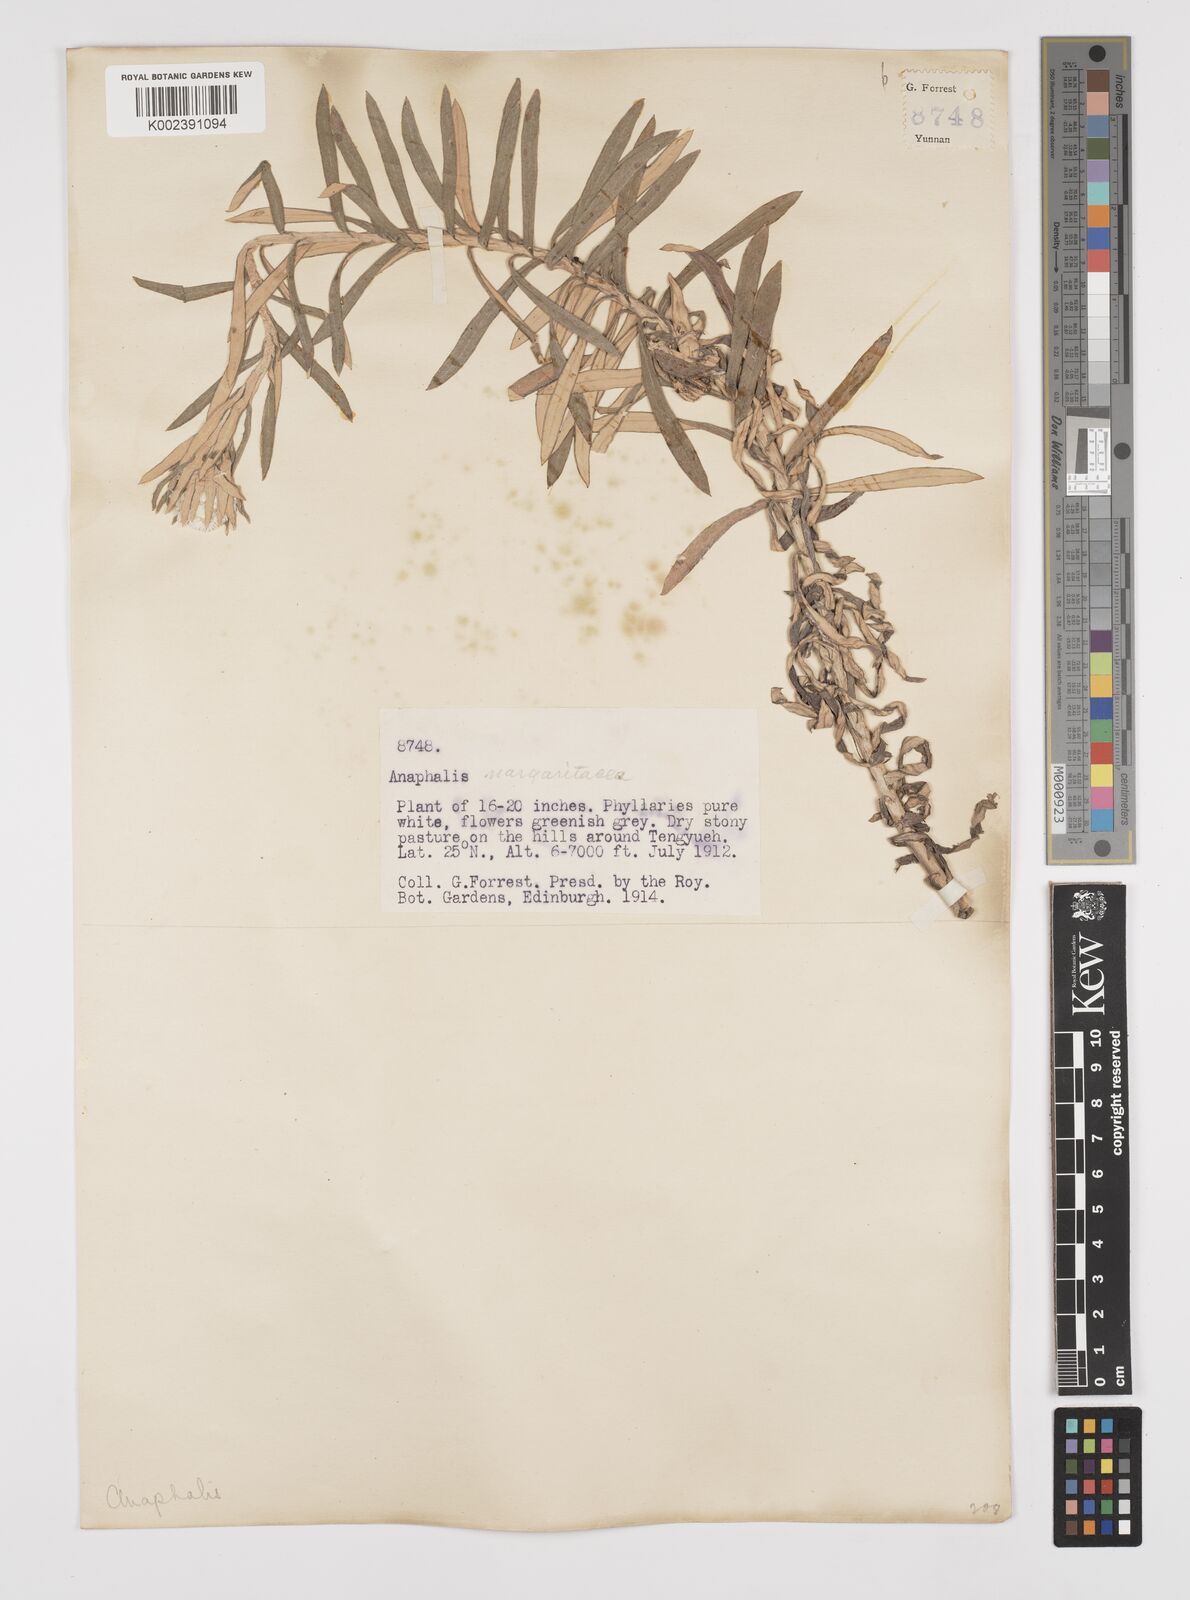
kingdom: Plantae
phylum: Tracheophyta
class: Magnoliopsida
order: Asterales
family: Asteraceae
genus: Anaphalis
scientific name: Anaphalis margaritacea
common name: Pearly everlasting
